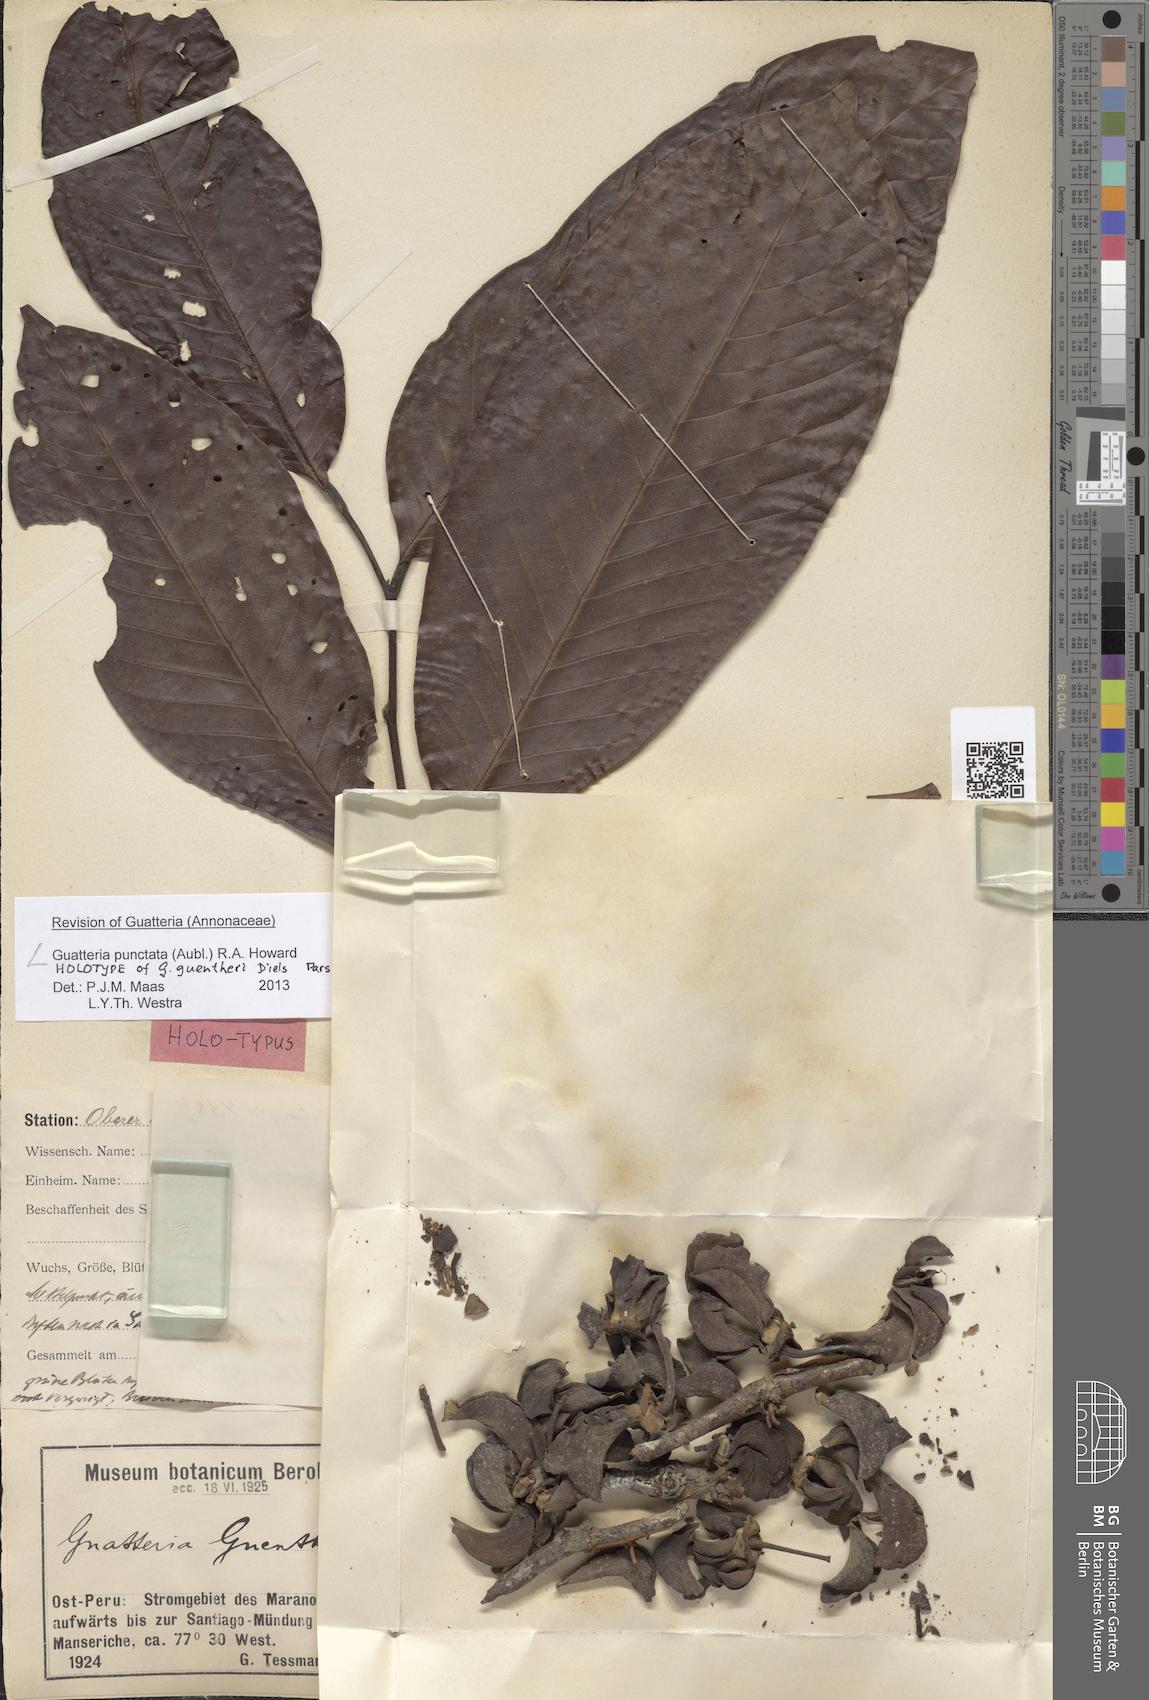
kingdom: Plantae
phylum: Tracheophyta
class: Magnoliopsida
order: Magnoliales
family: Annonaceae
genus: Guatteria
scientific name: Guatteria punctata
